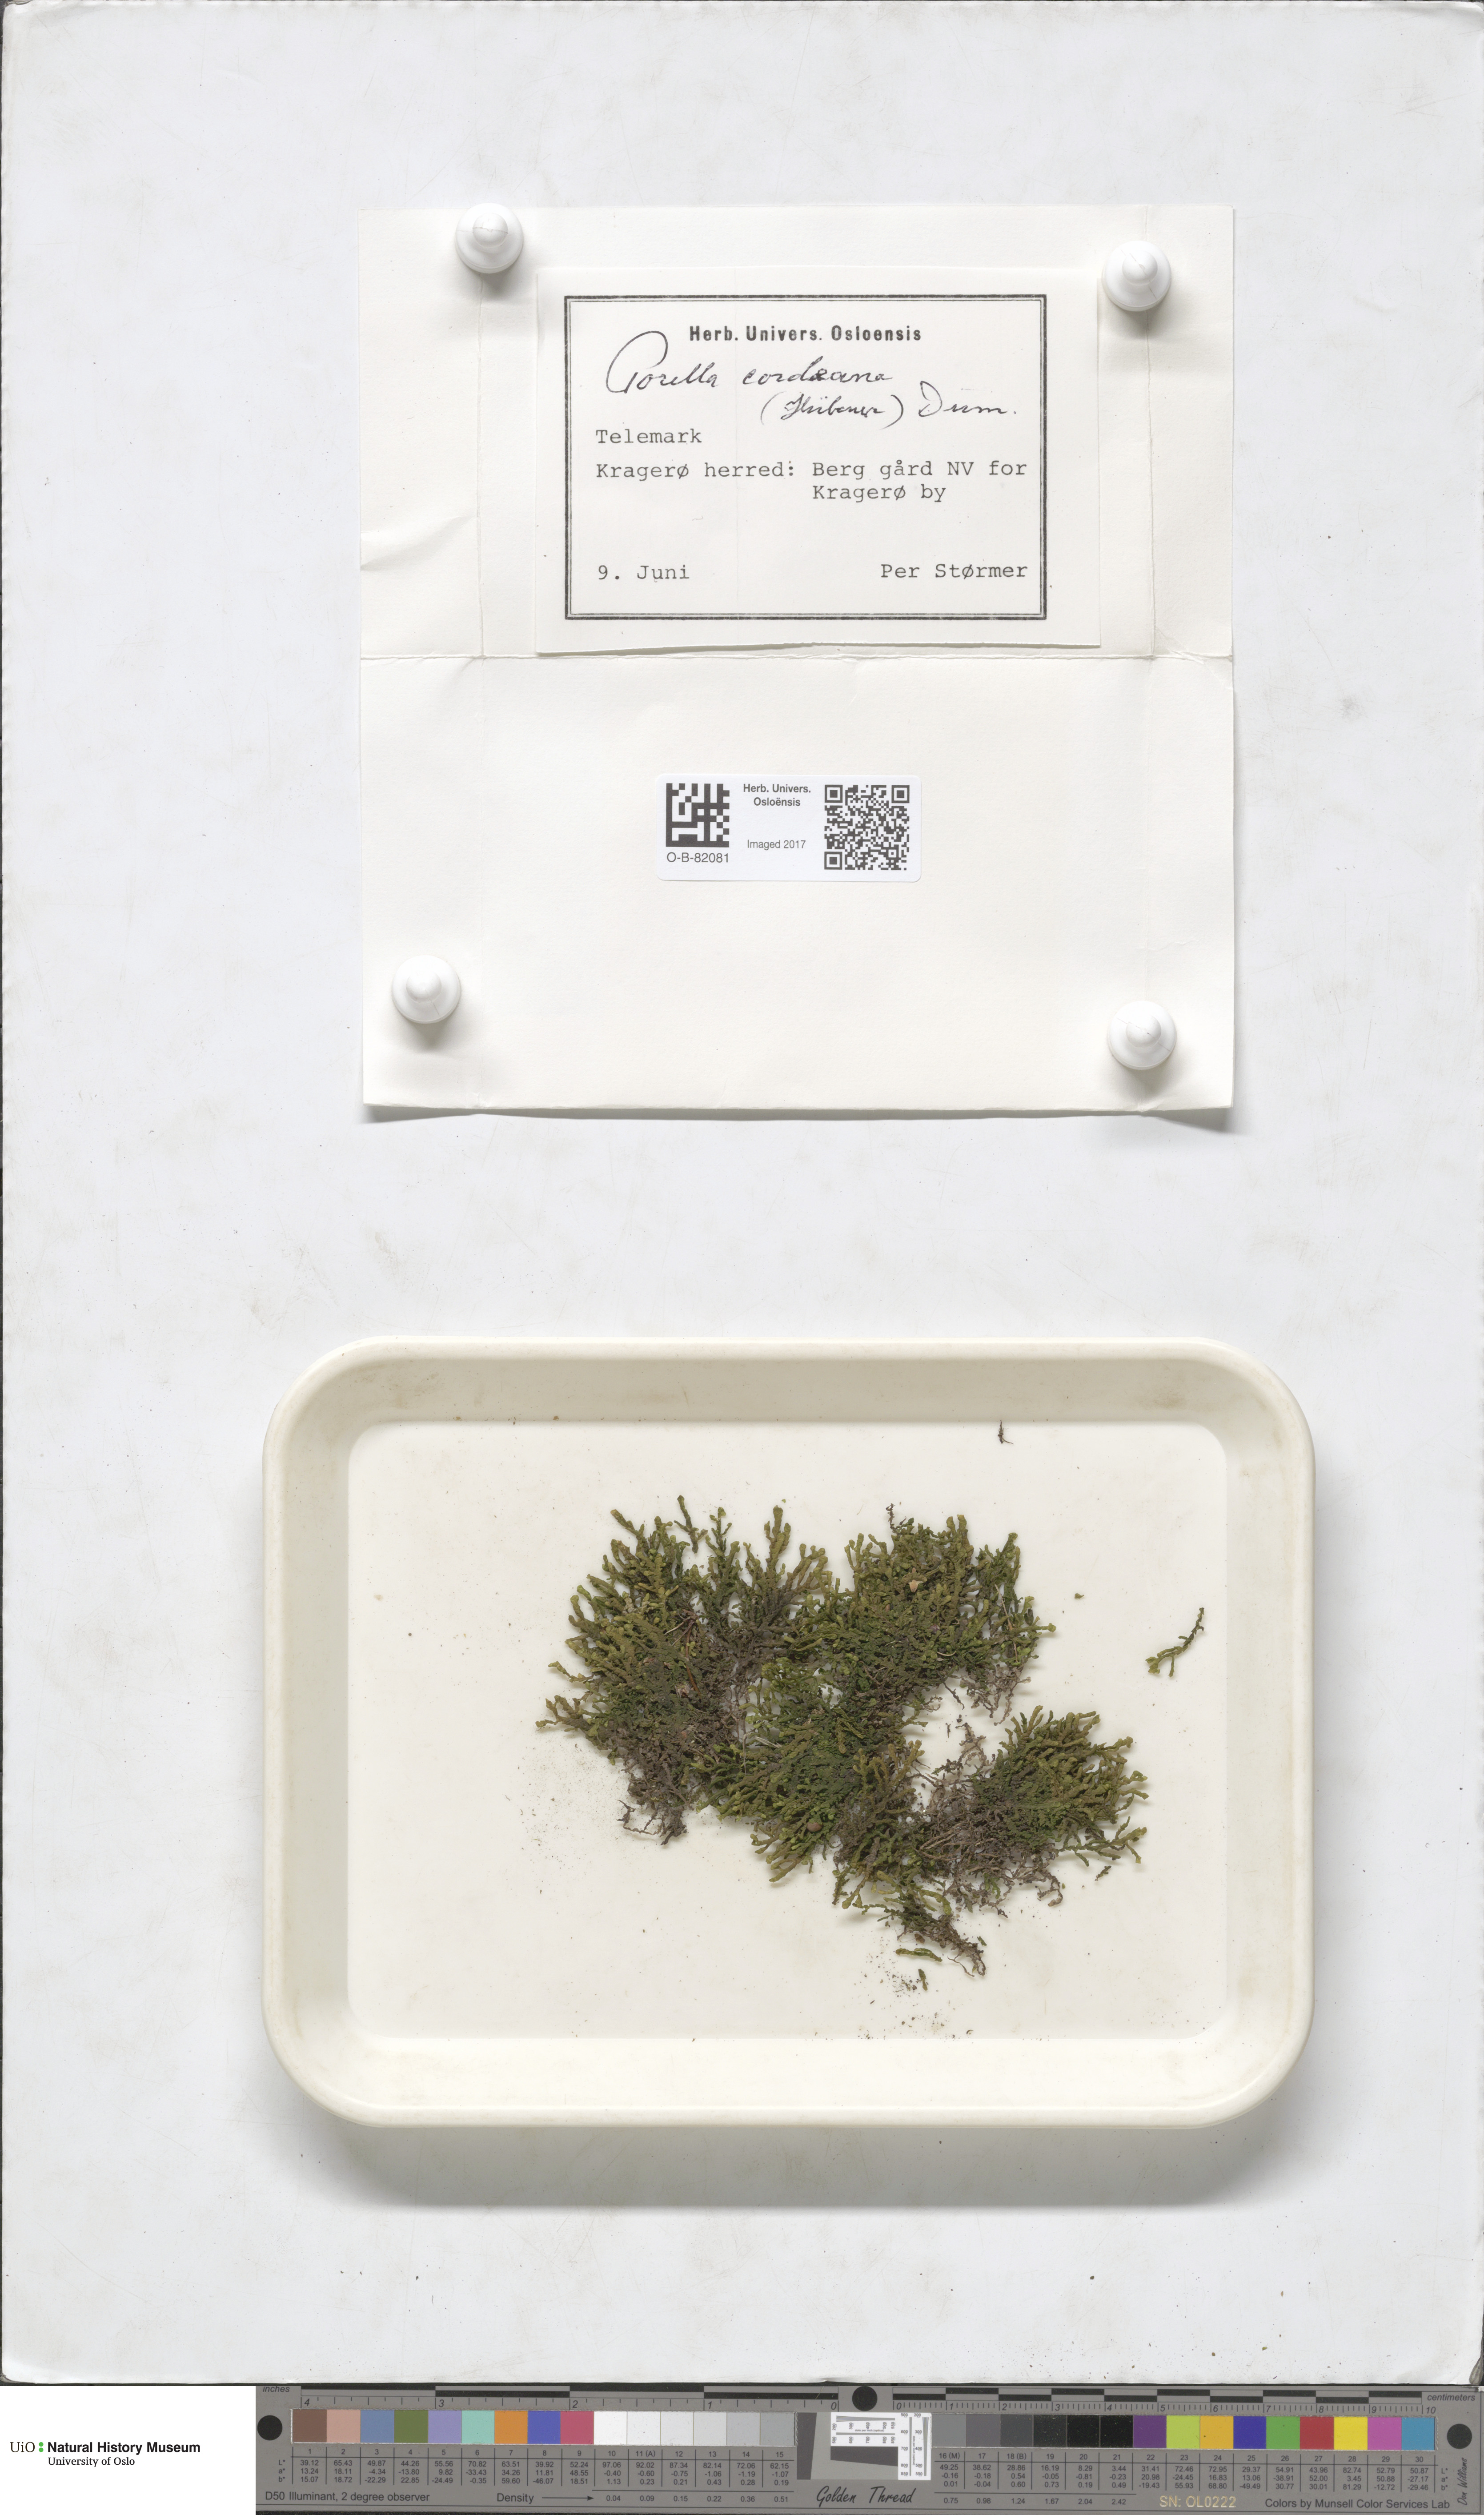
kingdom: Plantae
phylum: Marchantiophyta
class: Jungermanniopsida
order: Porellales
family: Porellaceae
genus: Porella
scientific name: Porella cordaeana
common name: Cliff scalewort
